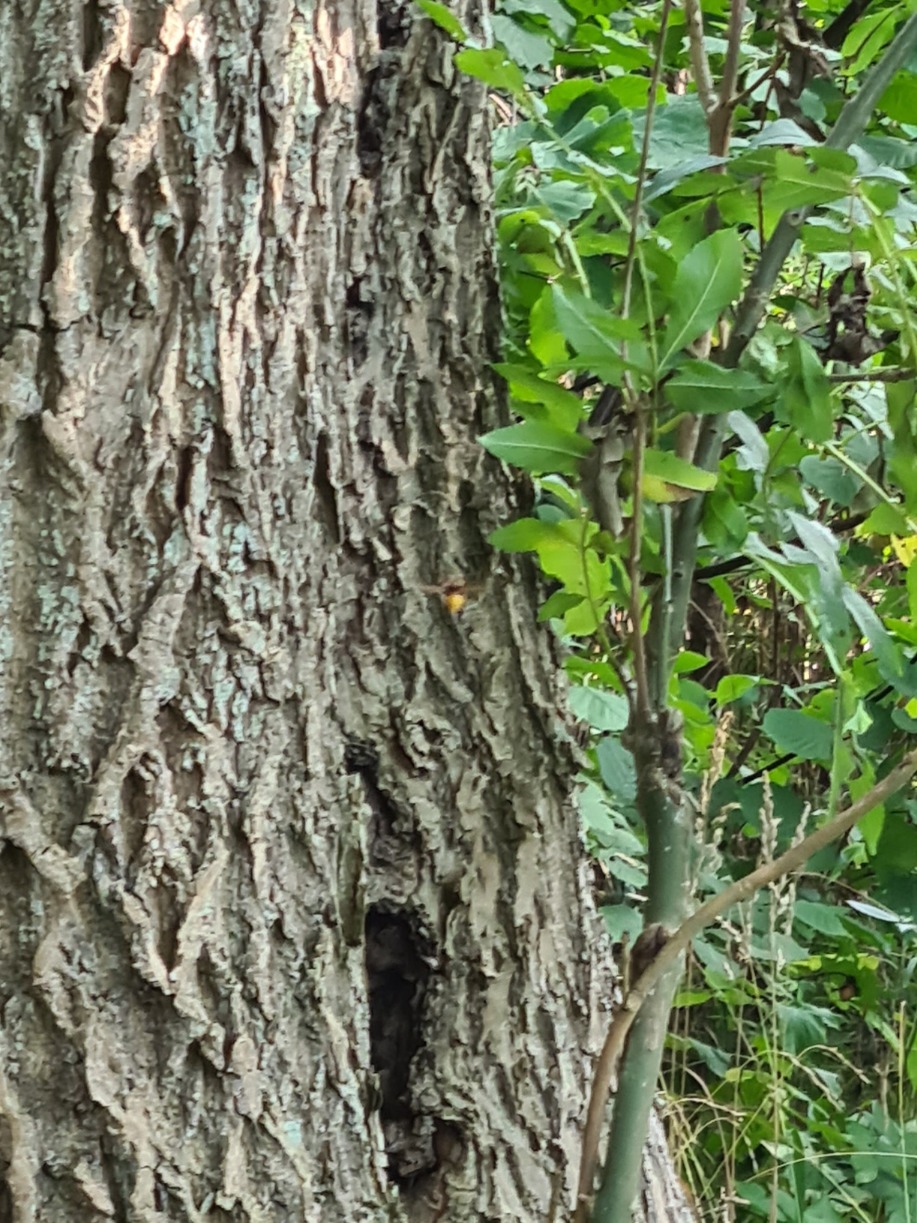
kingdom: Animalia
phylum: Arthropoda
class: Insecta
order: Hymenoptera
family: Vespidae
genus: Vespa
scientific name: Vespa crabro
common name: Stor gedehams
